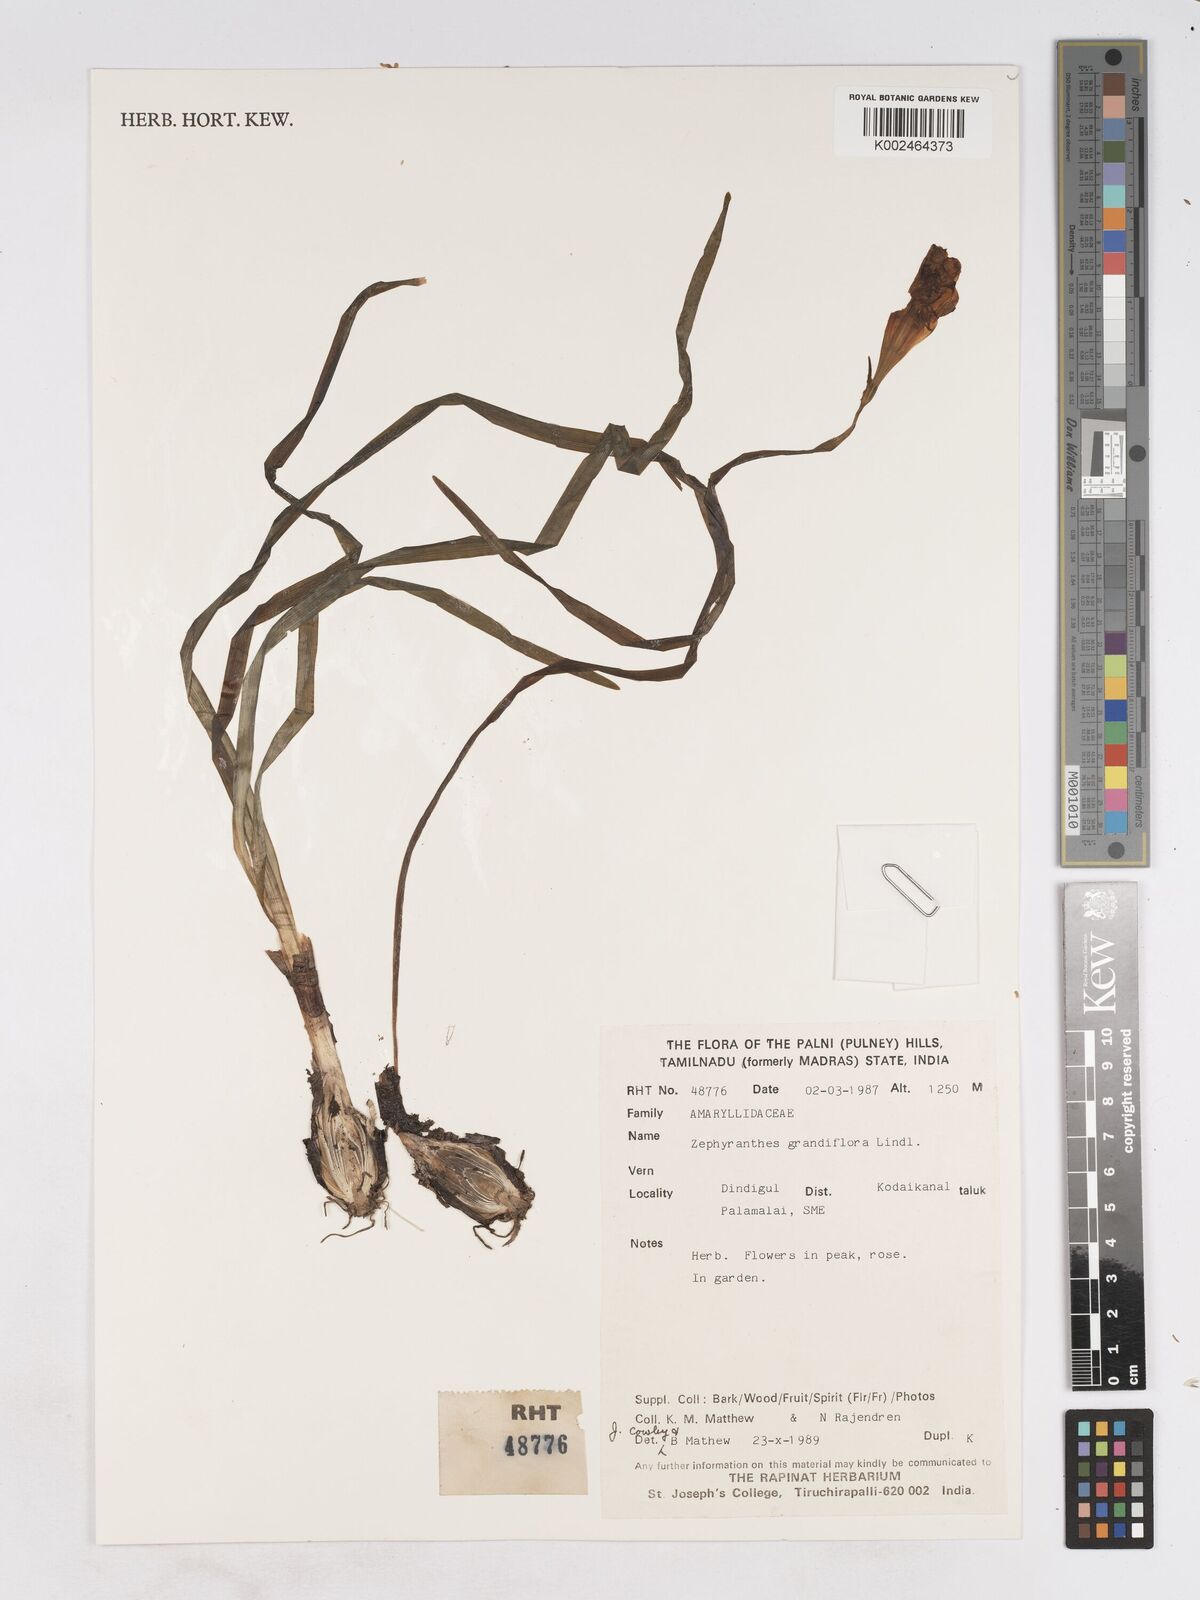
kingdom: Plantae
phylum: Tracheophyta
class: Liliopsida
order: Asparagales
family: Amaryllidaceae
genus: Zephyranthes
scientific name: Zephyranthes minuta
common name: Pink rain lily
